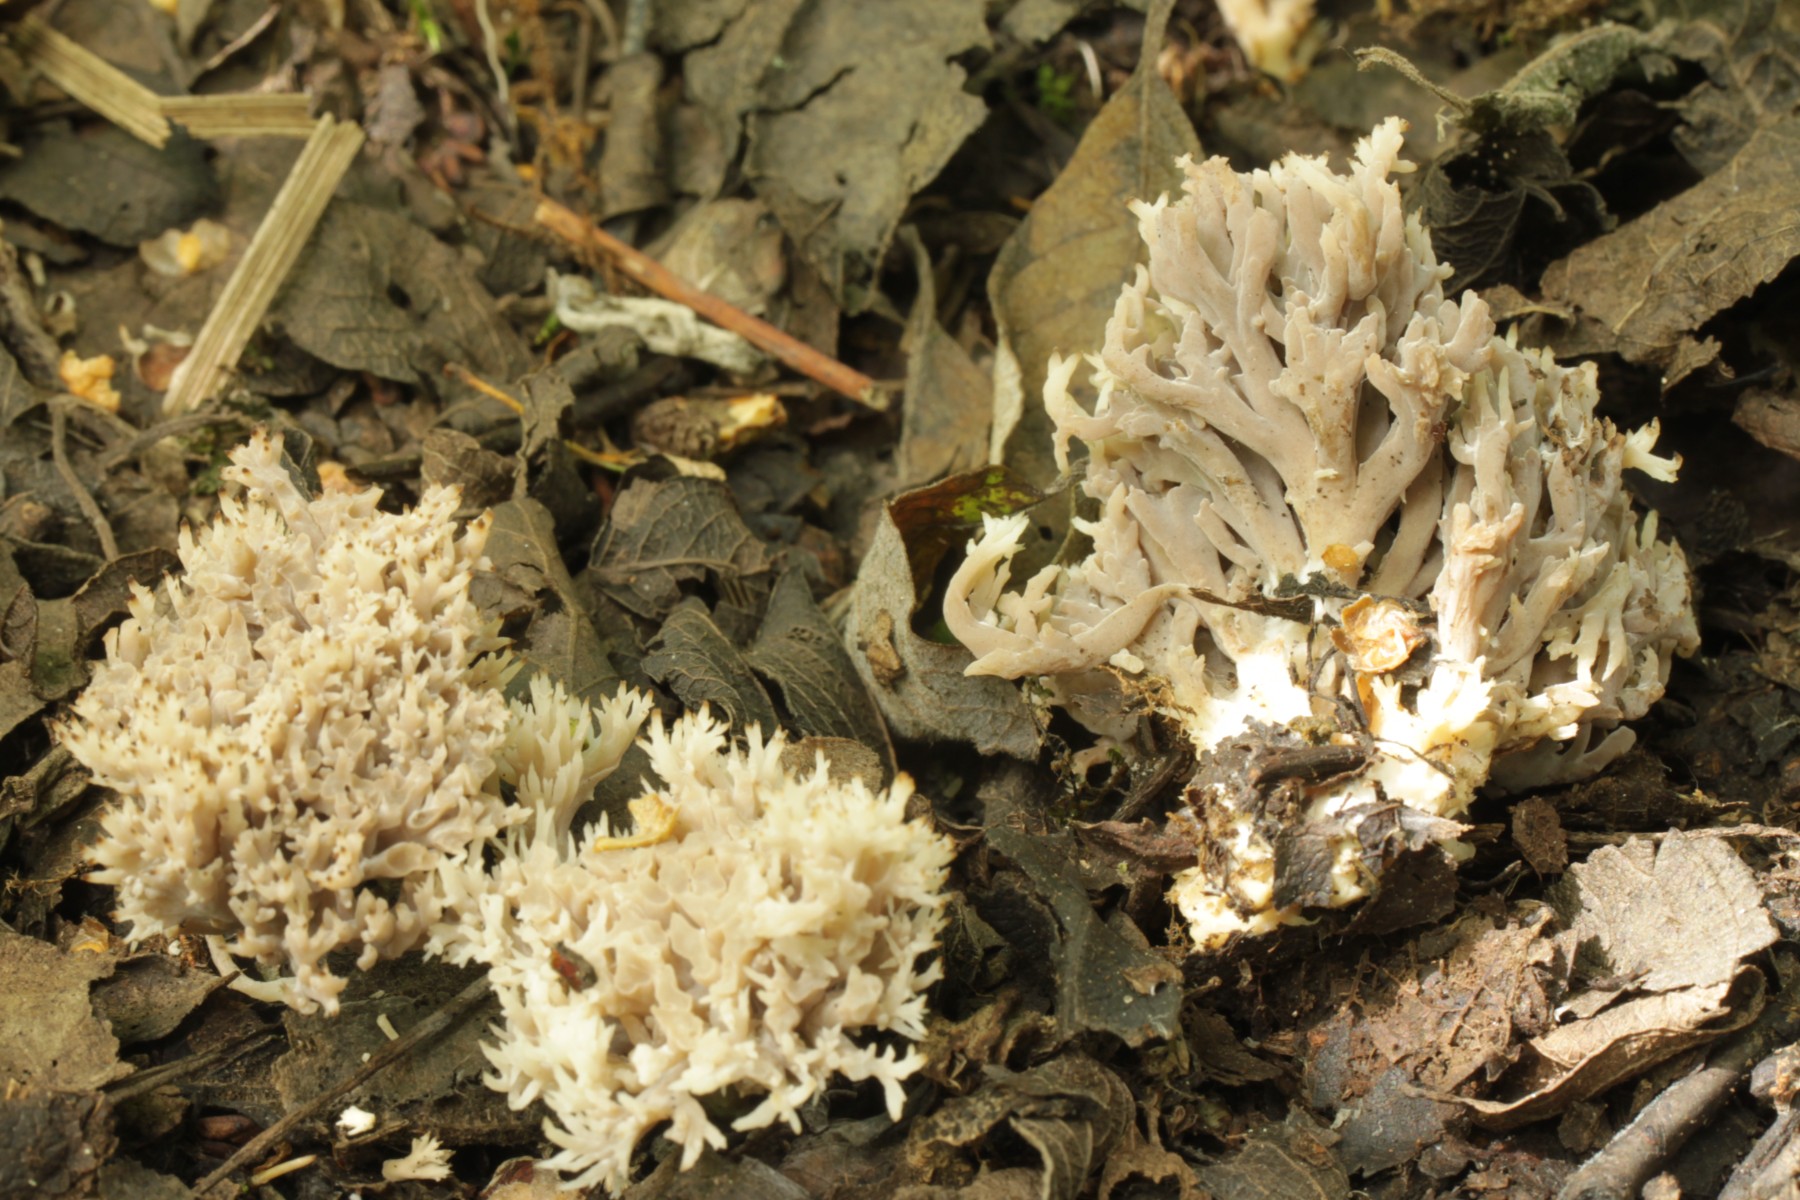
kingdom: Fungi
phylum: Basidiomycota
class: Agaricomycetes
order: Cantharellales
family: Hydnaceae
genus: Clavulina
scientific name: Clavulina
